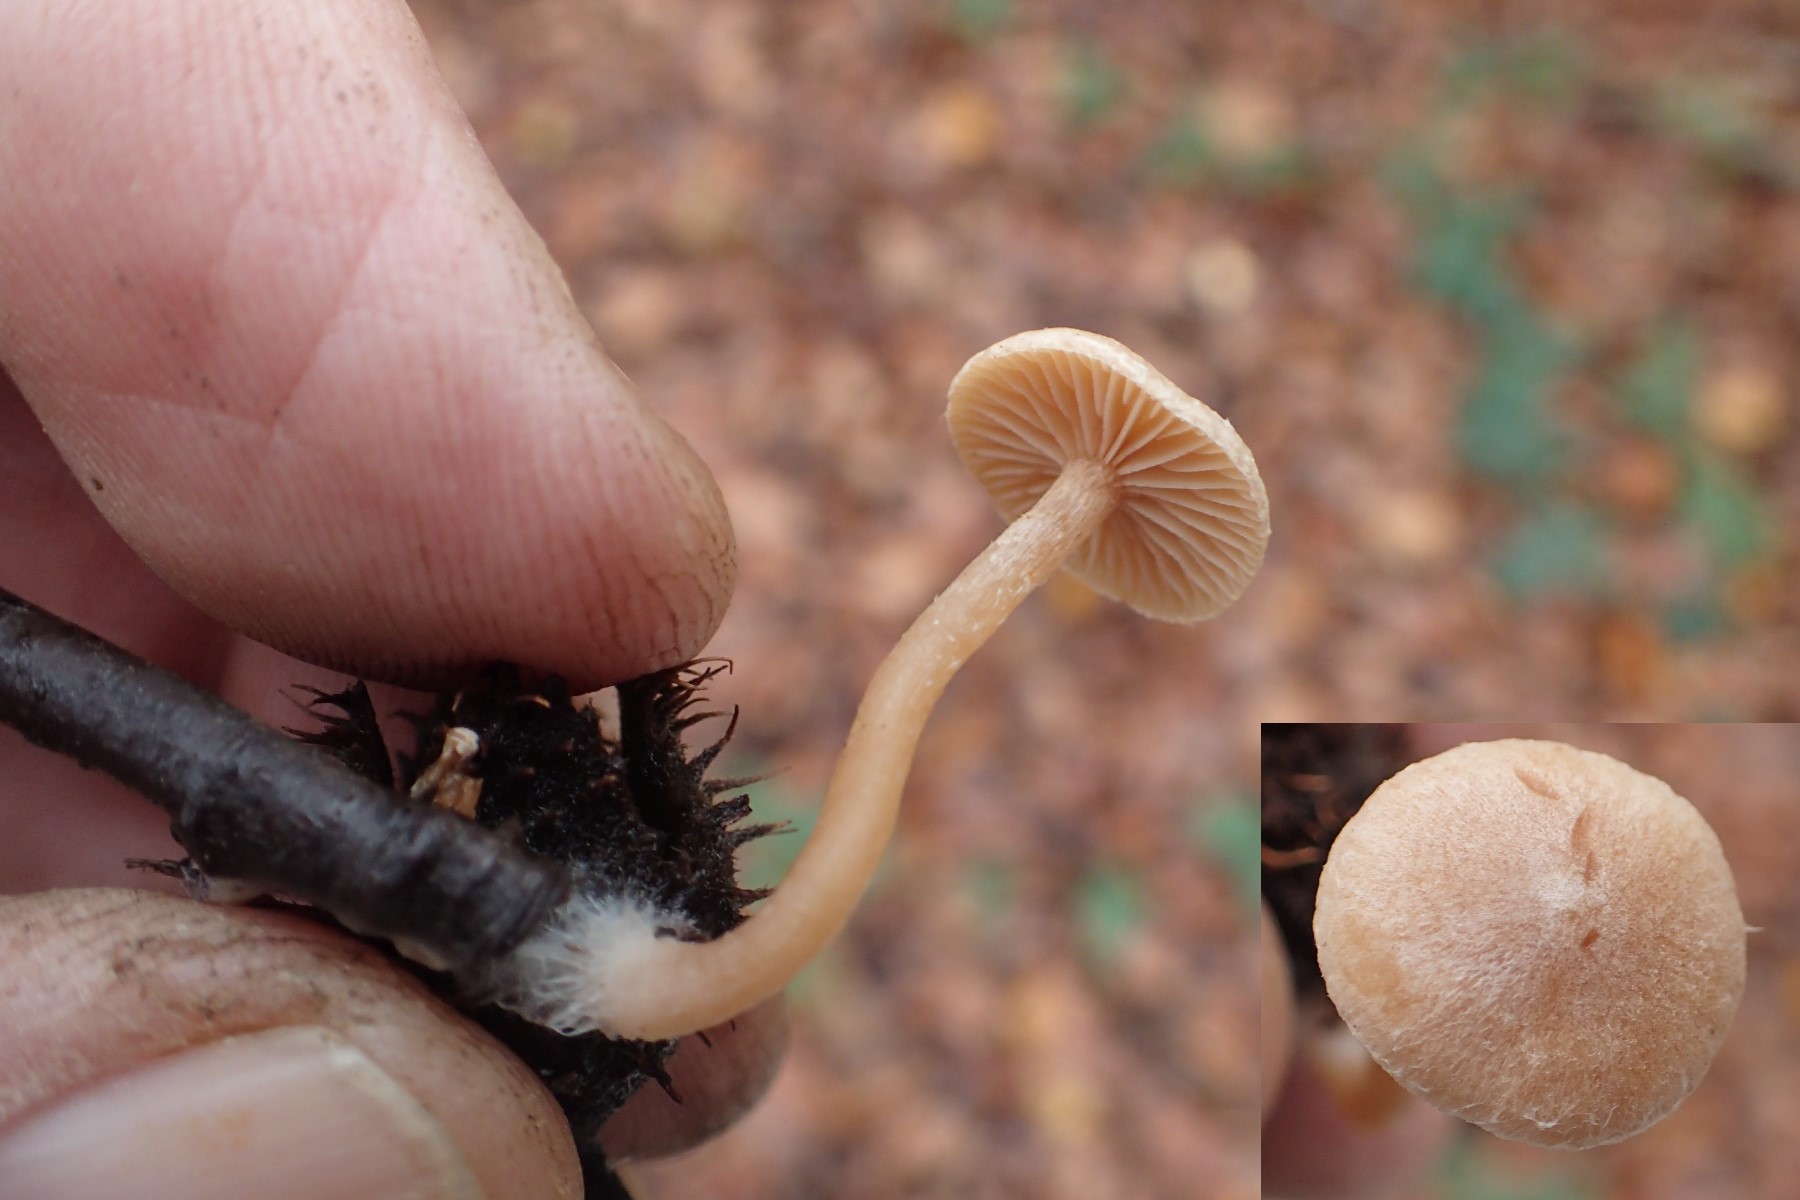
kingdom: Fungi
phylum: Basidiomycota
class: Agaricomycetes
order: Agaricales
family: Tubariaceae
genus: Tubaria
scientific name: Tubaria conspersa
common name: bleg fnughat
